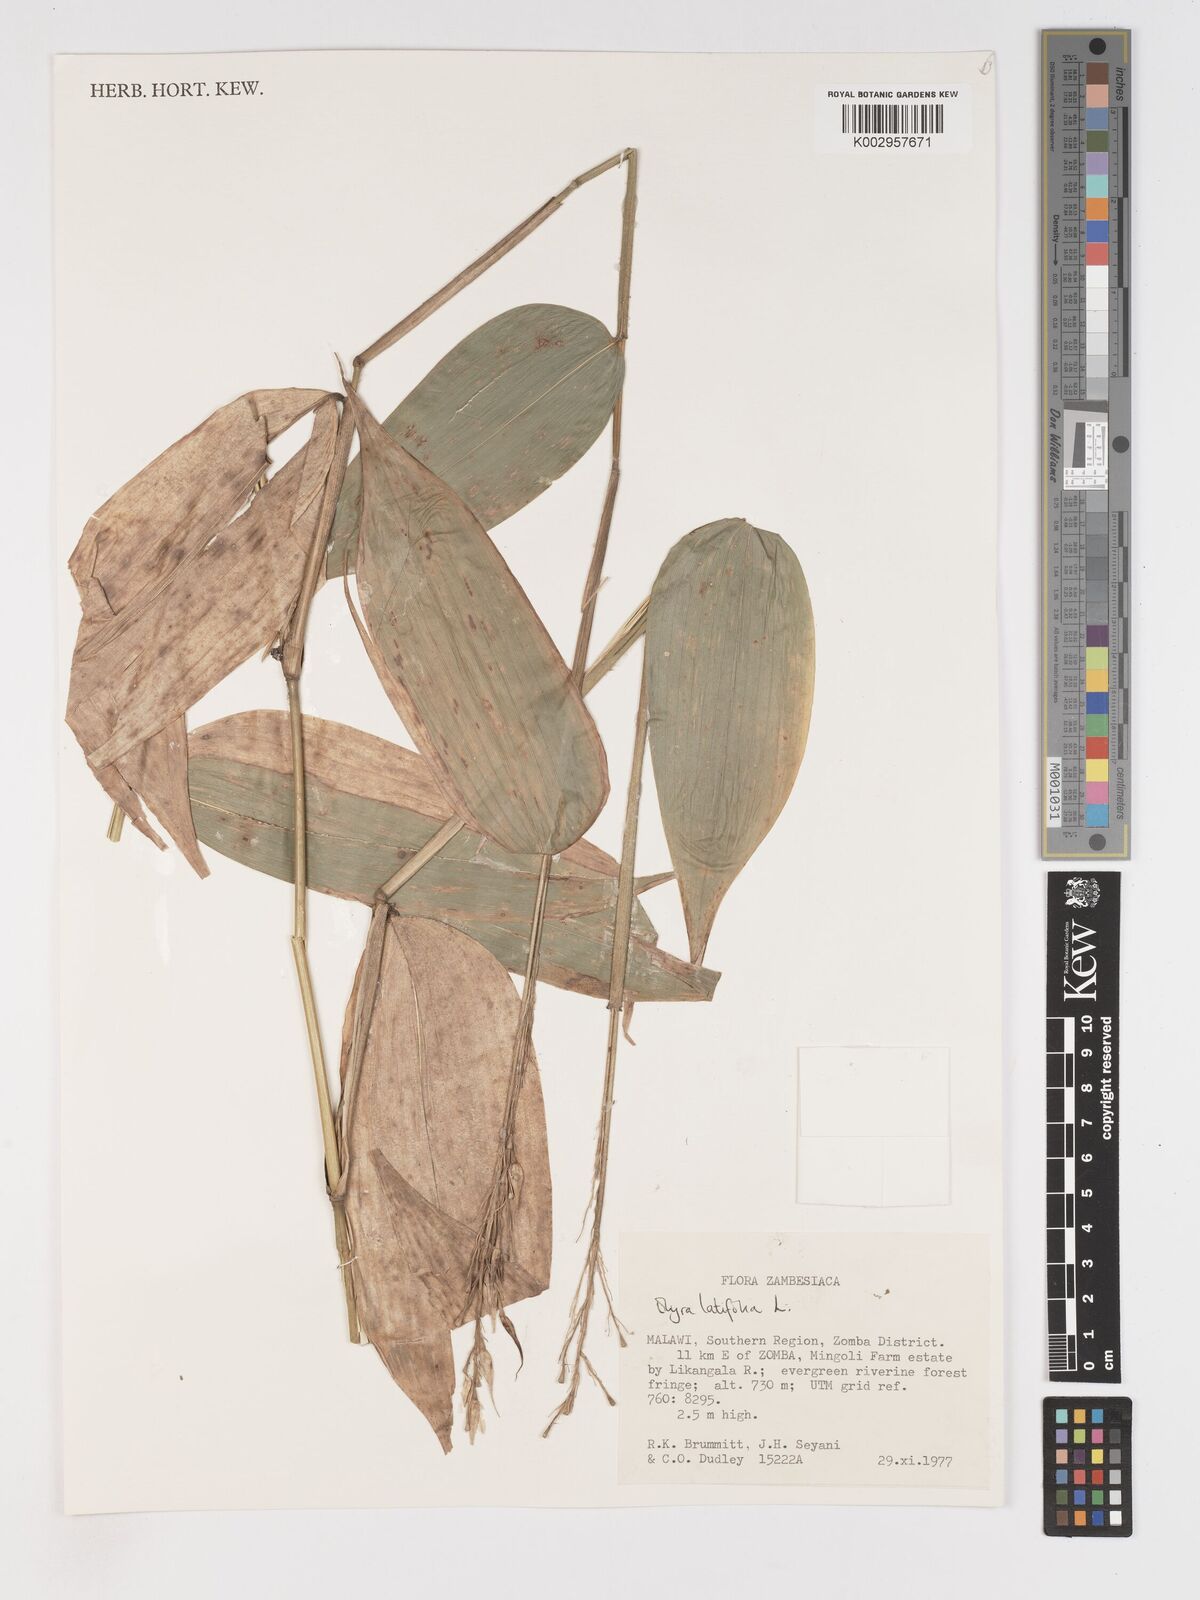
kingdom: Plantae
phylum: Tracheophyta
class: Liliopsida
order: Poales
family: Poaceae
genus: Olyra
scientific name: Olyra latifolia
